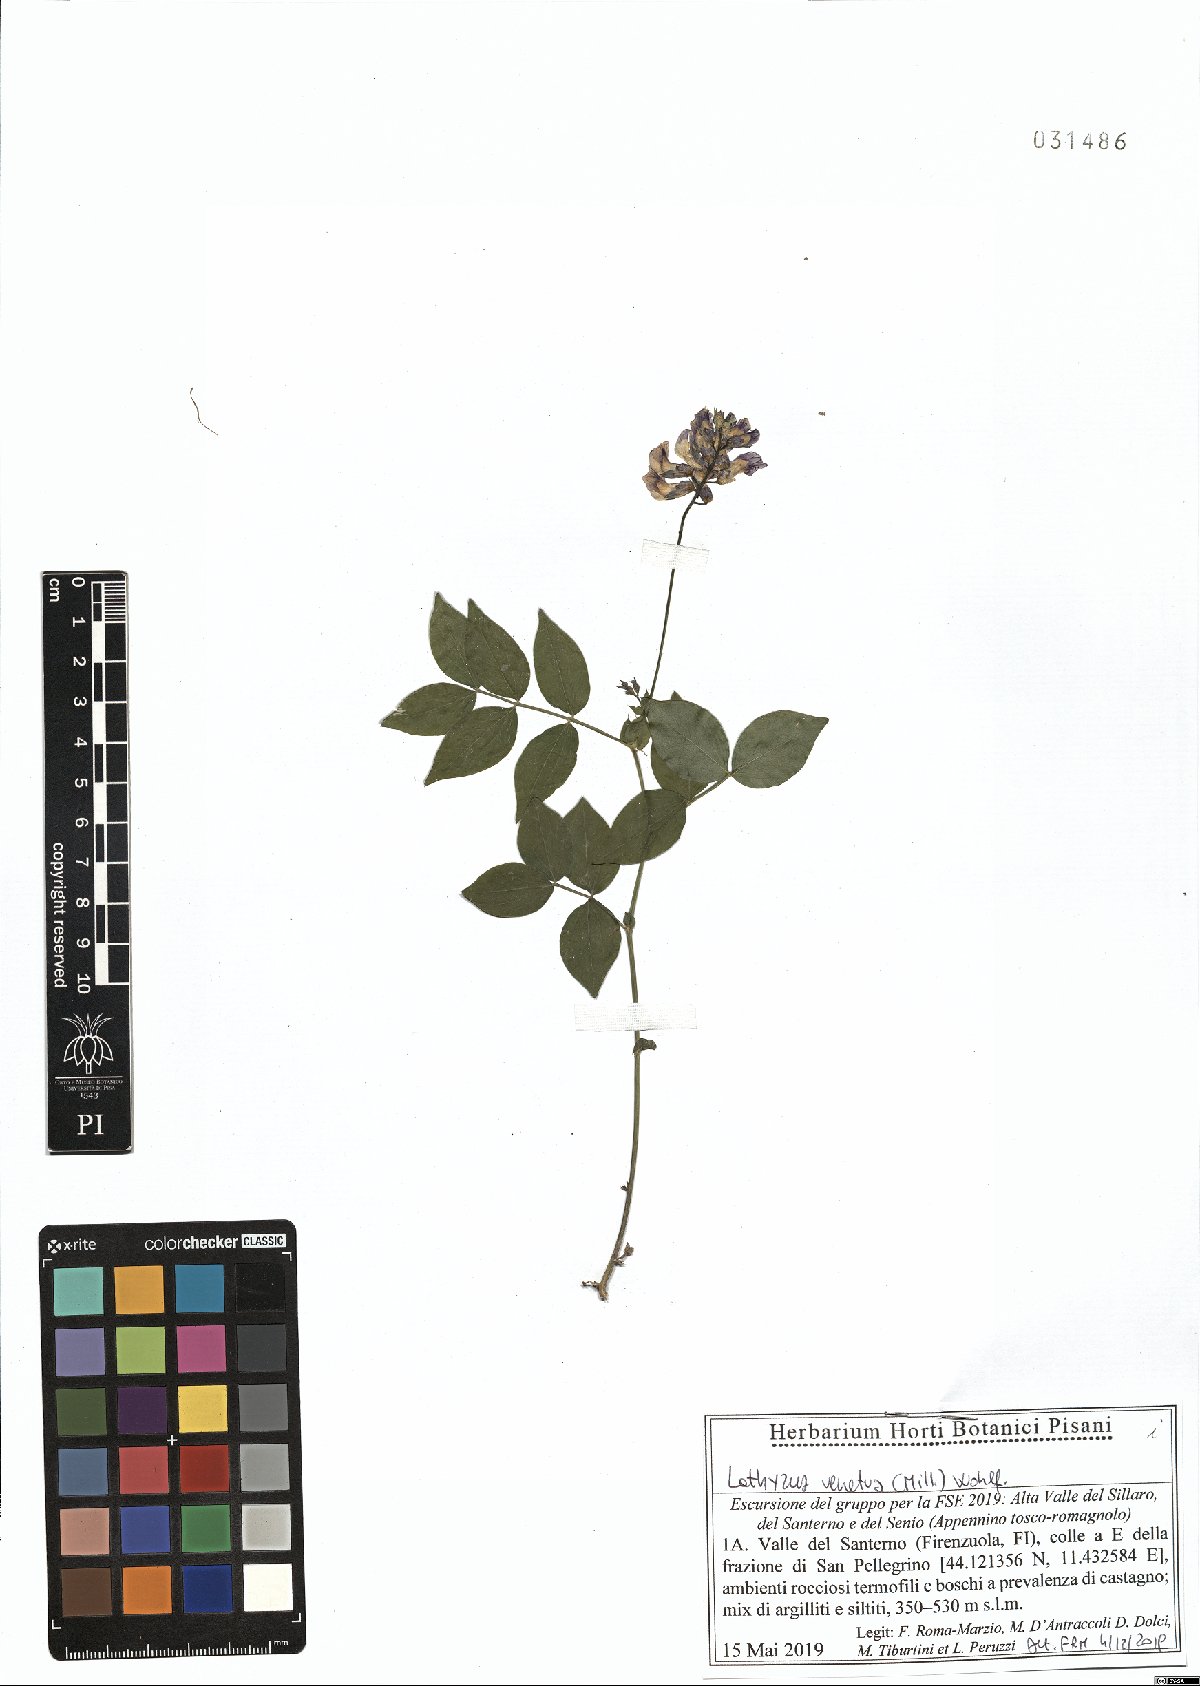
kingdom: Plantae
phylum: Tracheophyta
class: Magnoliopsida
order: Fabales
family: Fabaceae
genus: Lathyrus
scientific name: Lathyrus venetus
